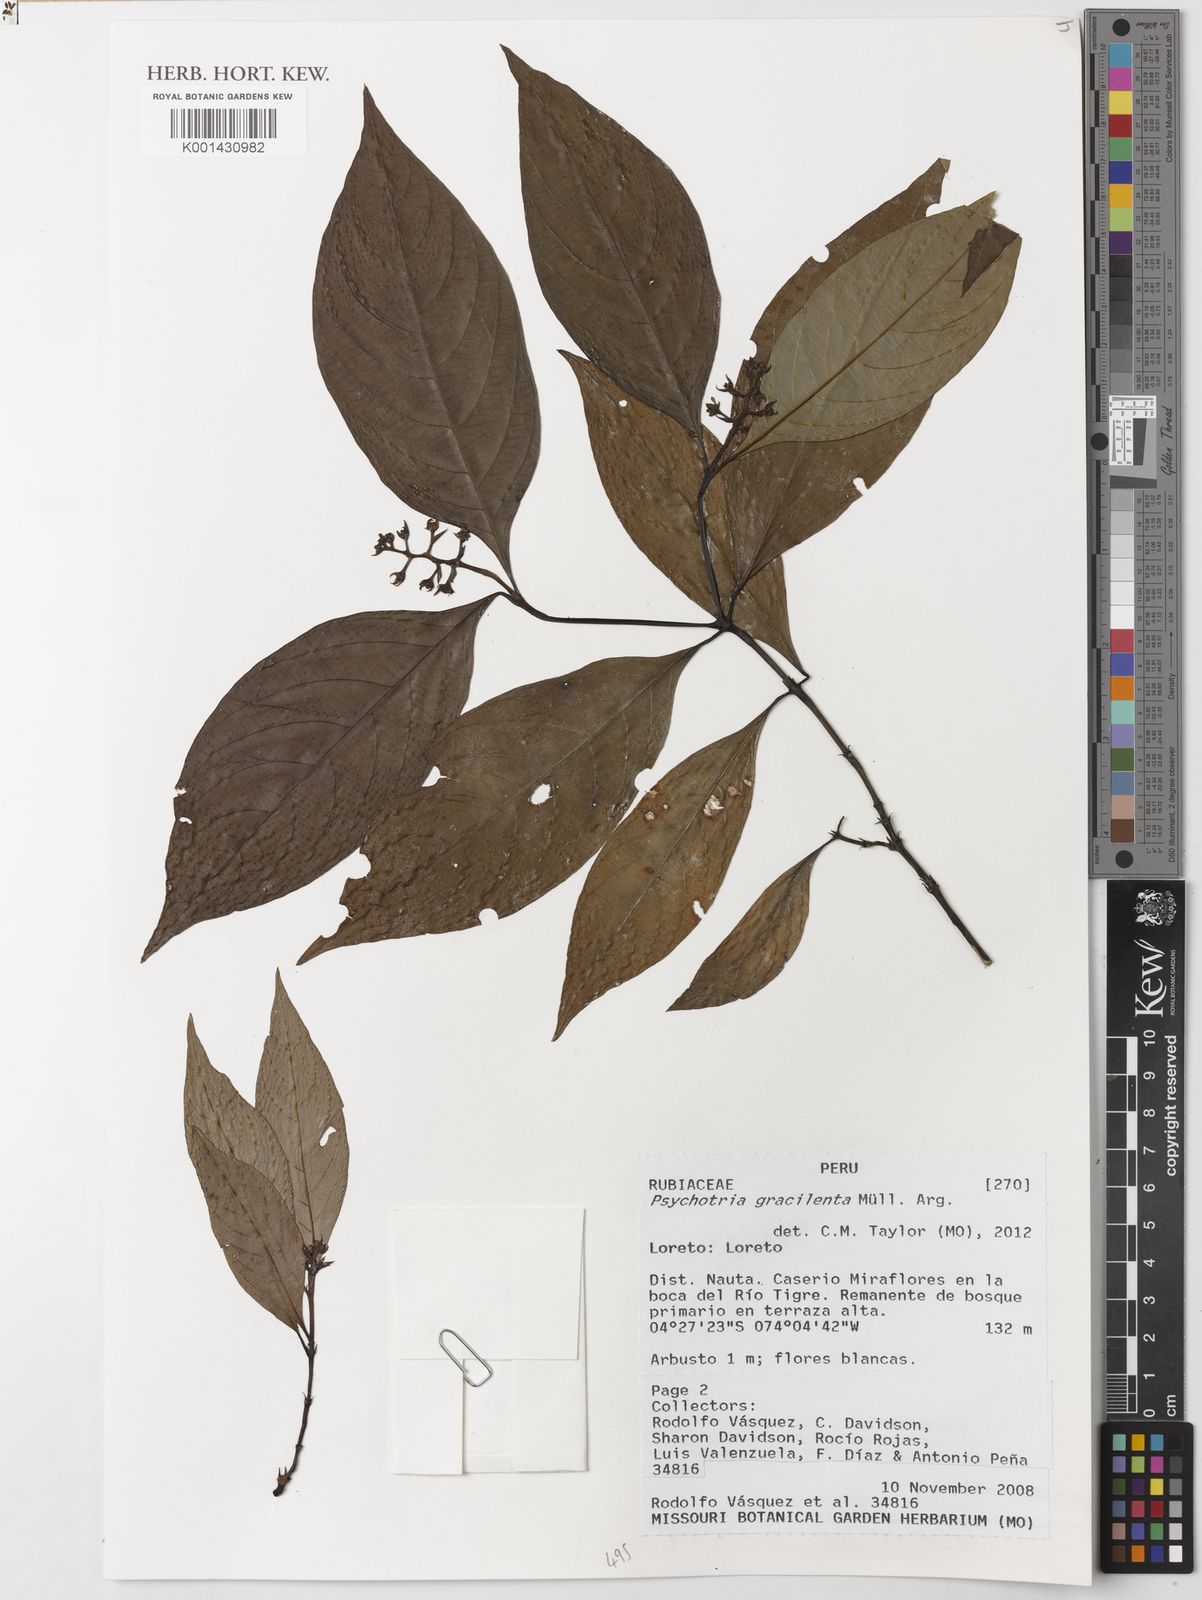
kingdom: Plantae
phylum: Tracheophyta
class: Magnoliopsida
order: Gentianales
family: Rubiaceae
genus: Psychotria
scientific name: Psychotria
